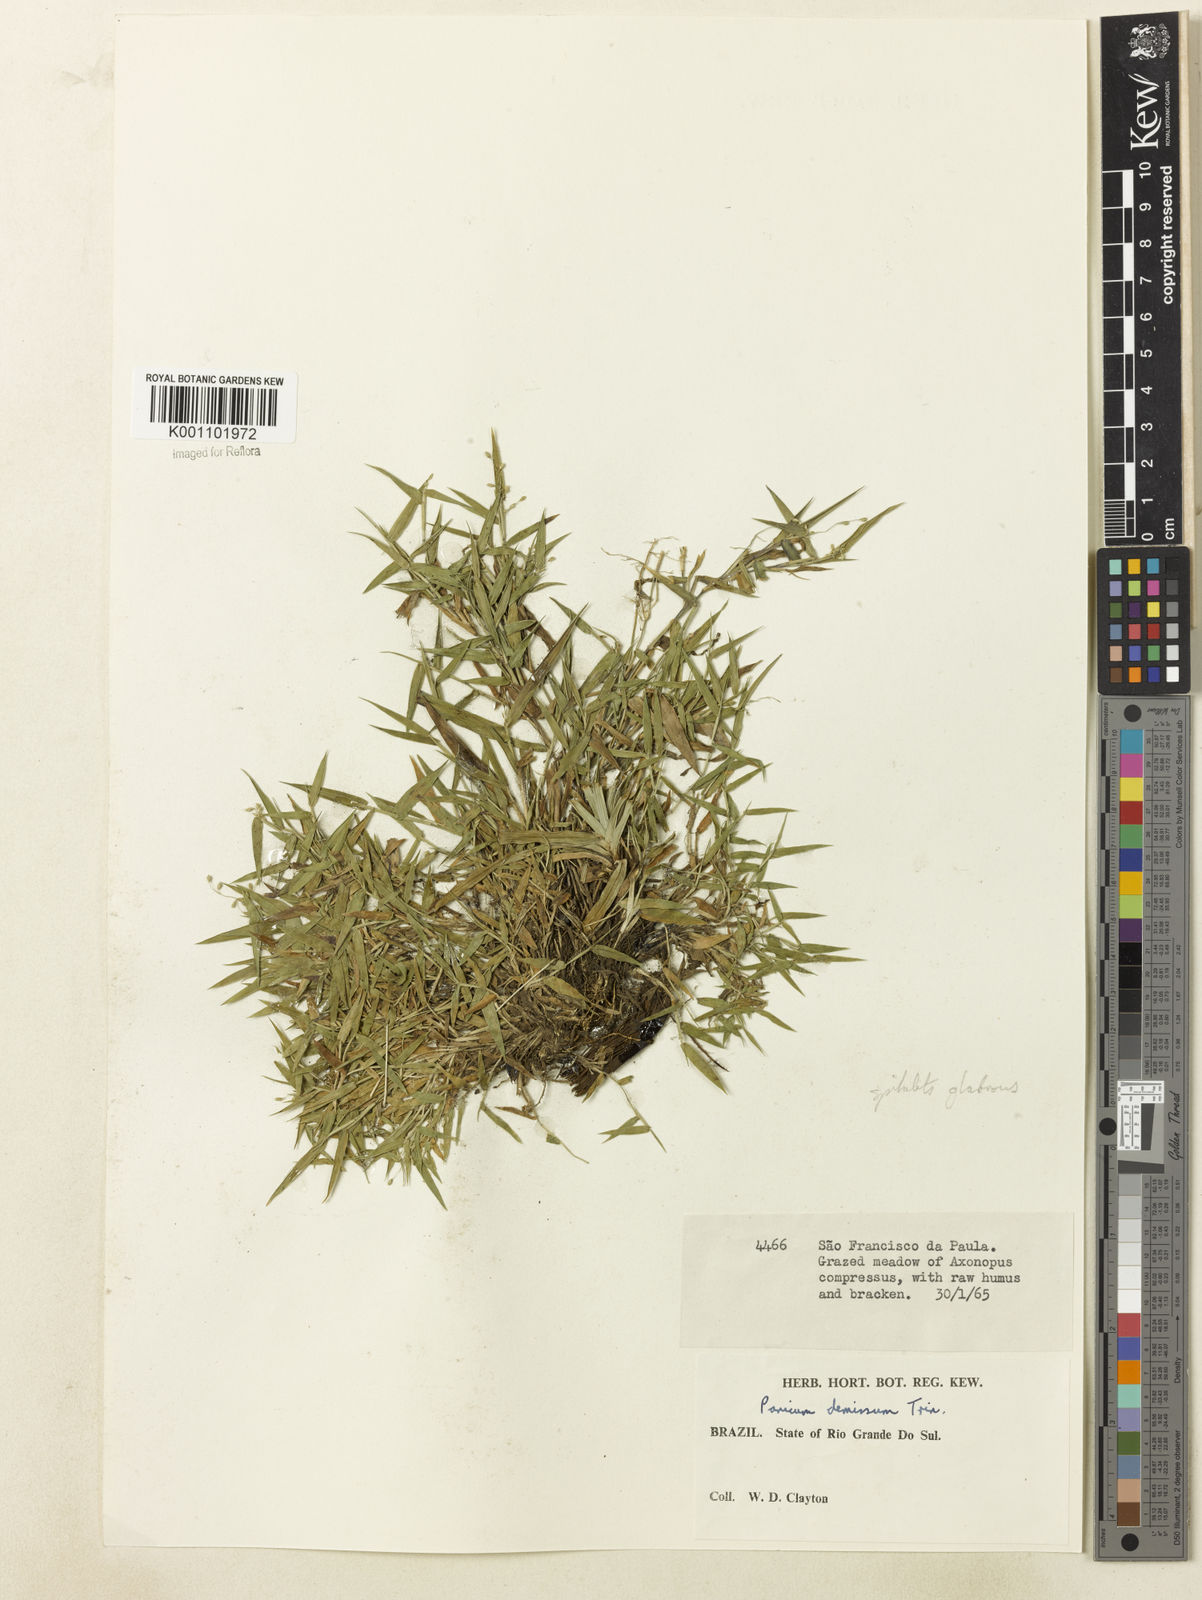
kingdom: Plantae
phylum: Tracheophyta
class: Liliopsida
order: Poales
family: Poaceae
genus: Dichanthelium
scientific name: Dichanthelium sabulorum
